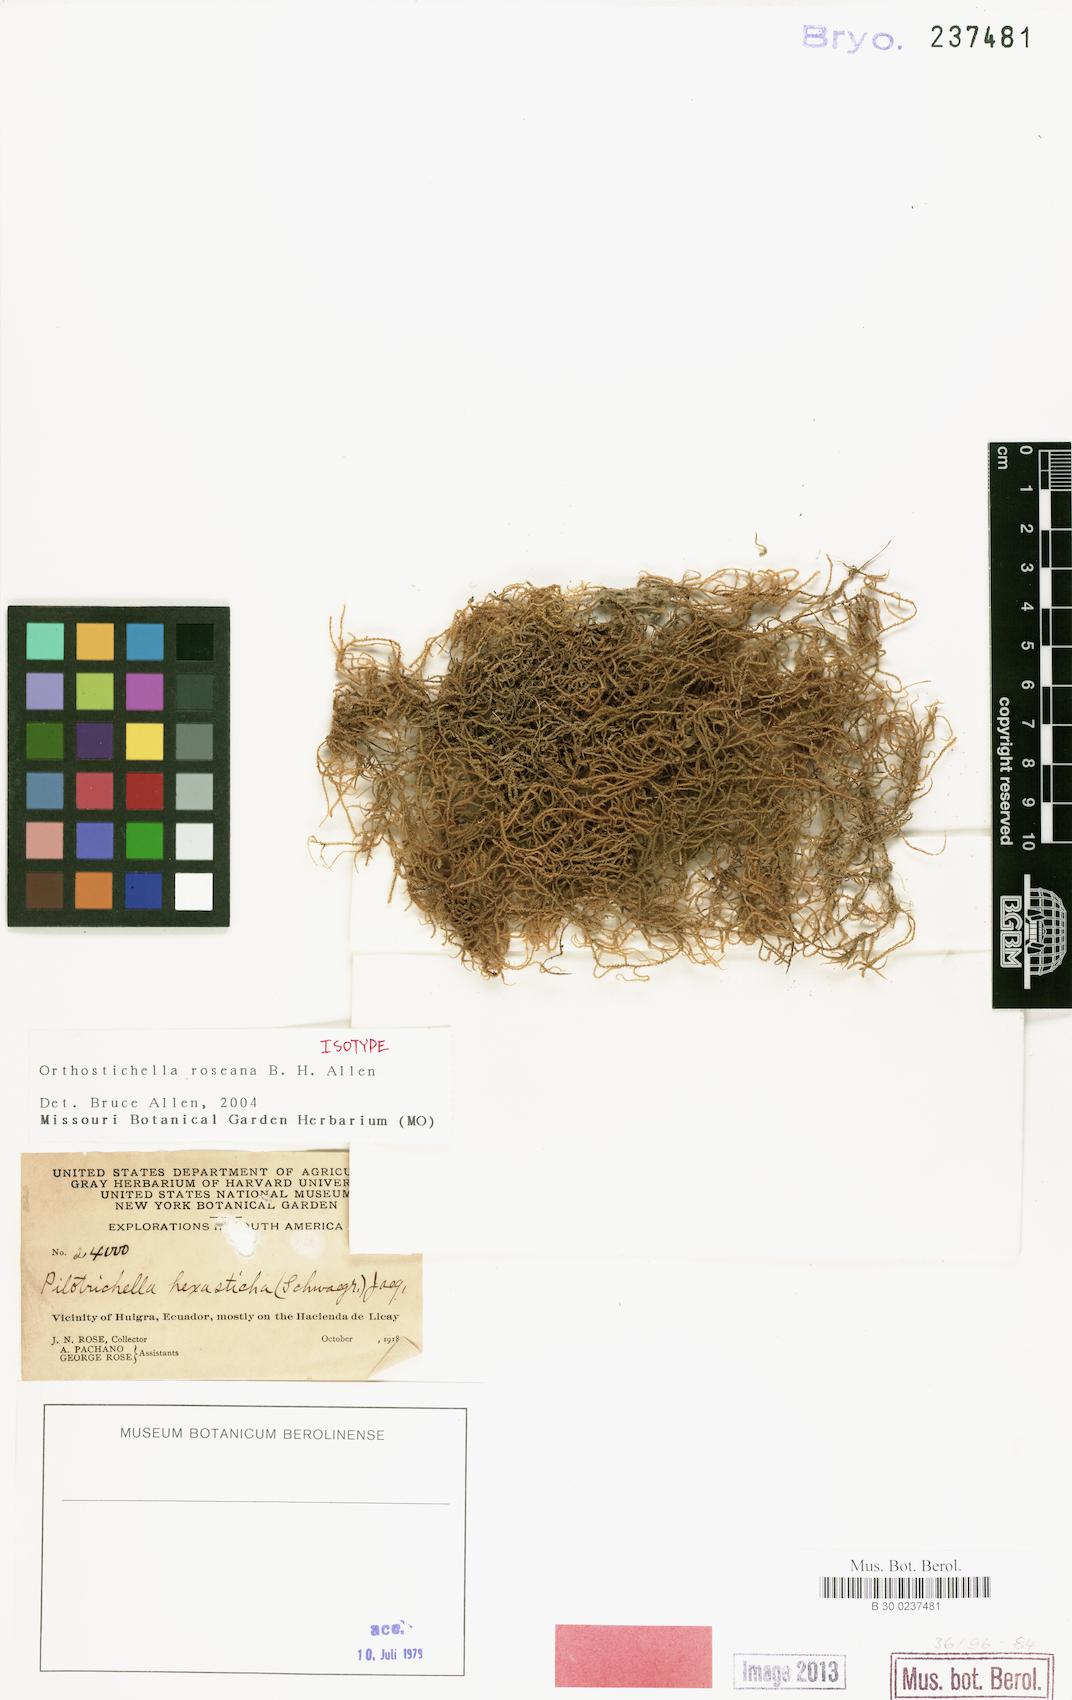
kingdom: Plantae
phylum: Bryophyta
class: Bryopsida
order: Hypnales
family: Orthostichellaceae
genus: Orthostichella
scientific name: Orthostichella
